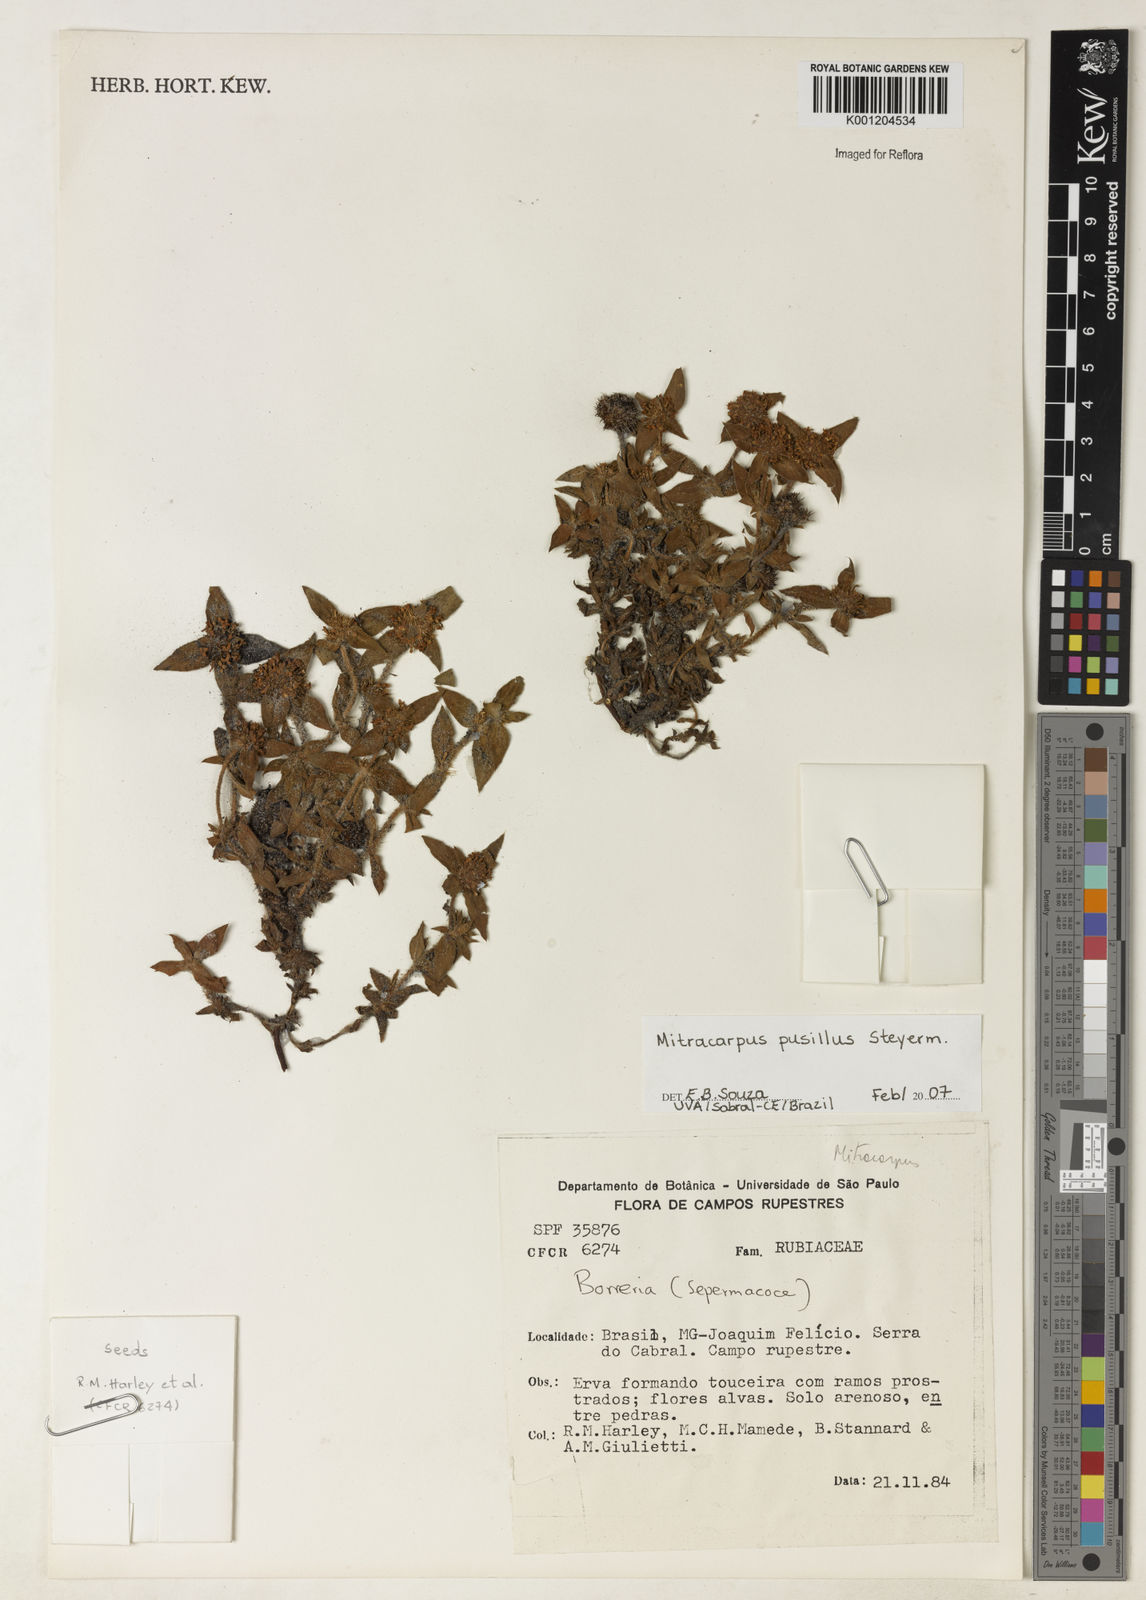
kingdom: Plantae
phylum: Tracheophyta
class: Magnoliopsida
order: Gentianales
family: Rubiaceae
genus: Mitracarpus
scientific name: Mitracarpus pusillus
